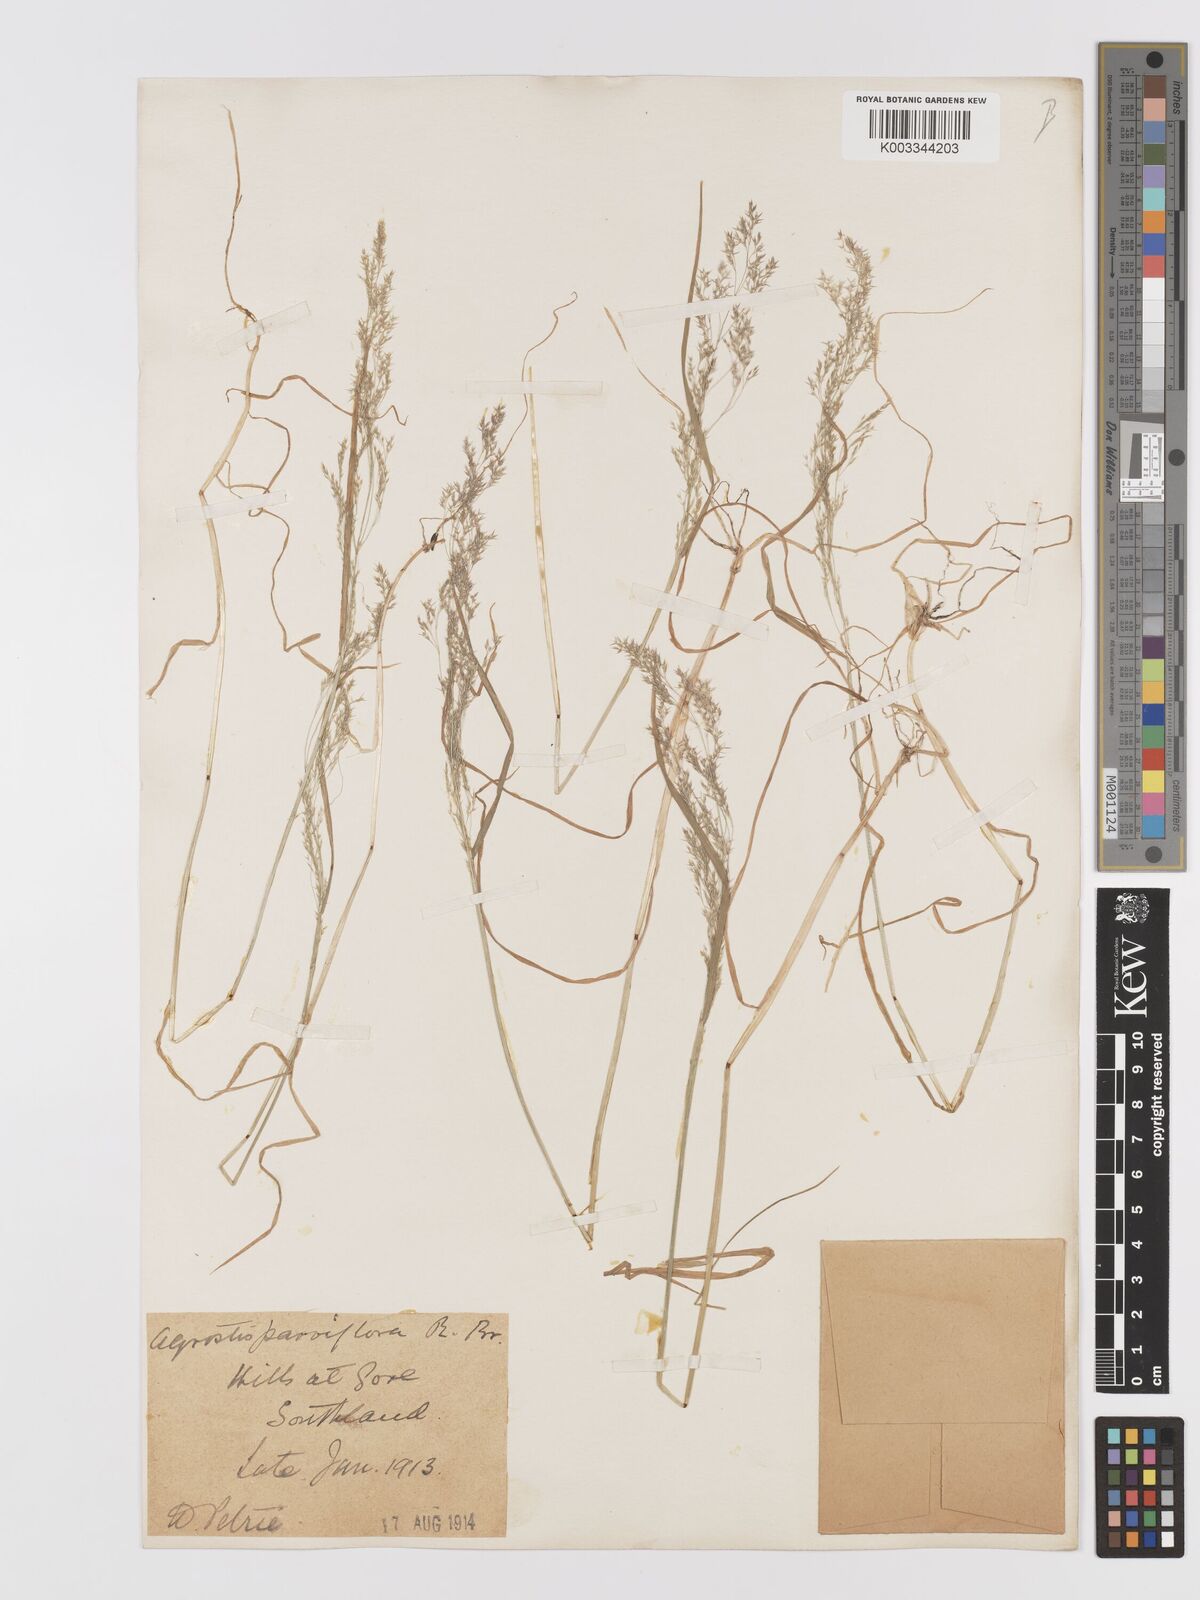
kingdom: Plantae
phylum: Tracheophyta
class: Liliopsida
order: Poales
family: Poaceae
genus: Agrostis
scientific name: Agrostis parviflora
